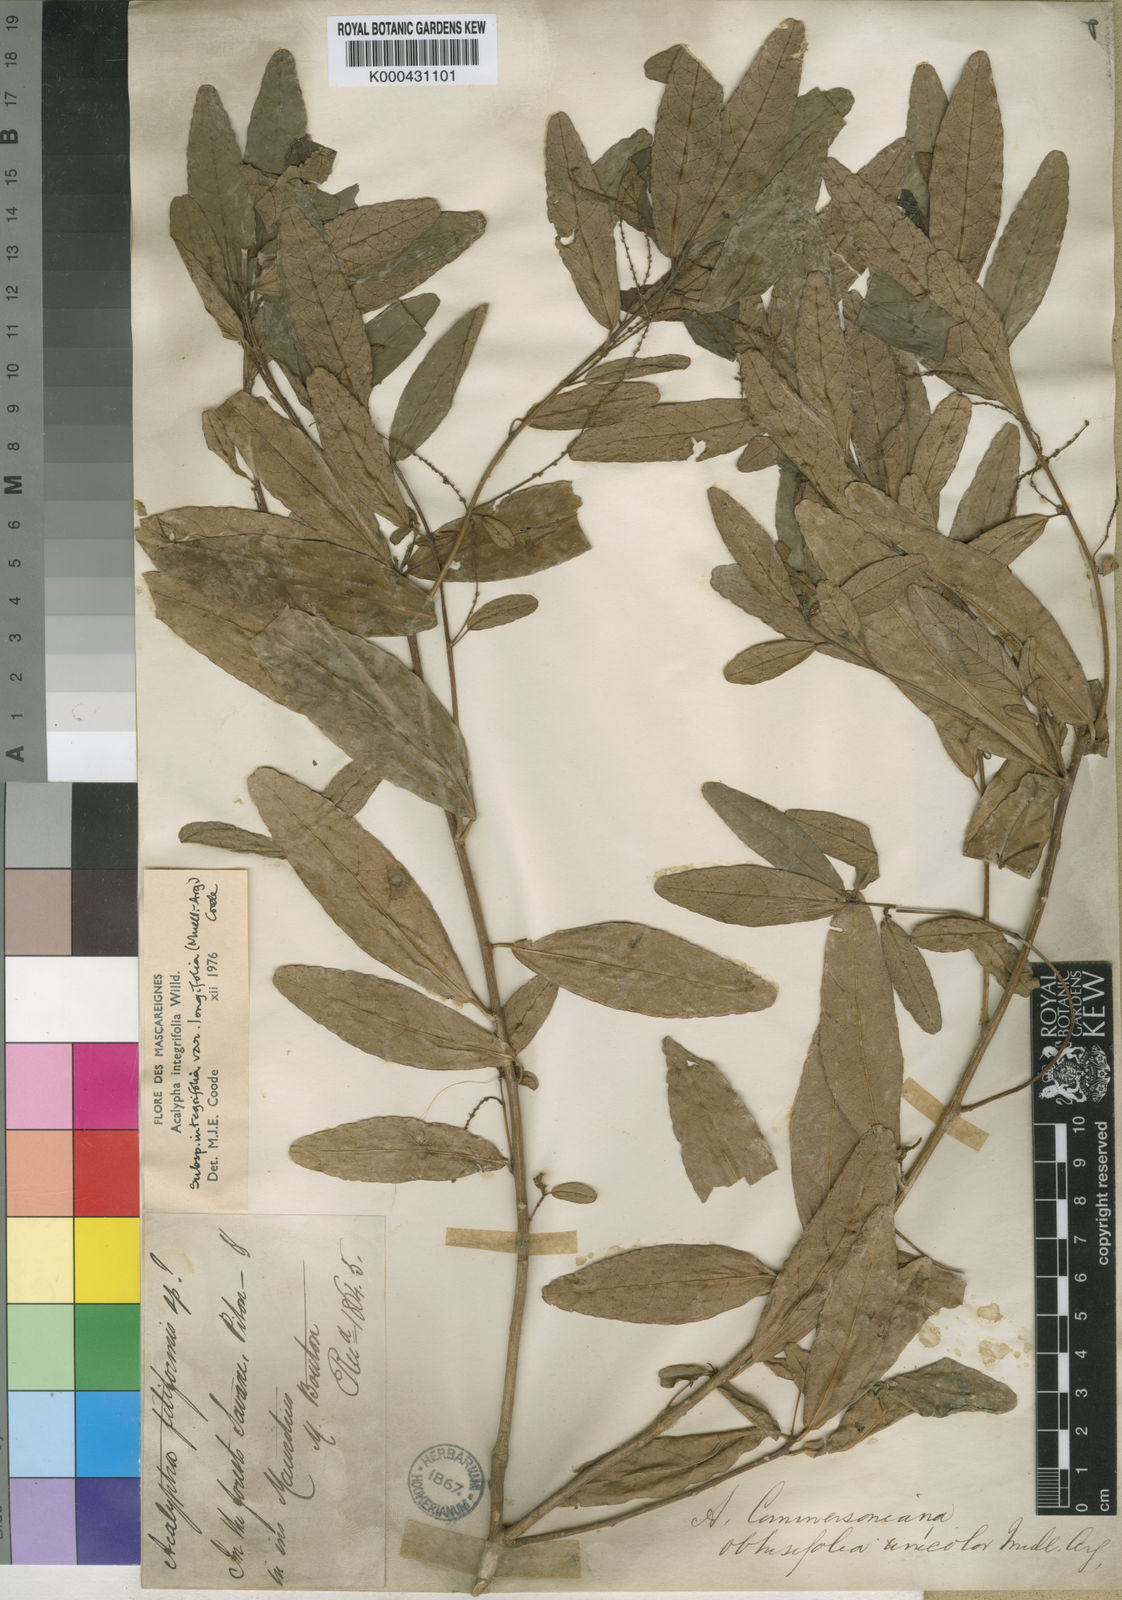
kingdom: Plantae
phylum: Tracheophyta
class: Magnoliopsida
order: Malpighiales
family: Euphorbiaceae
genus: Acalypha
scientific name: Acalypha integrifolia
